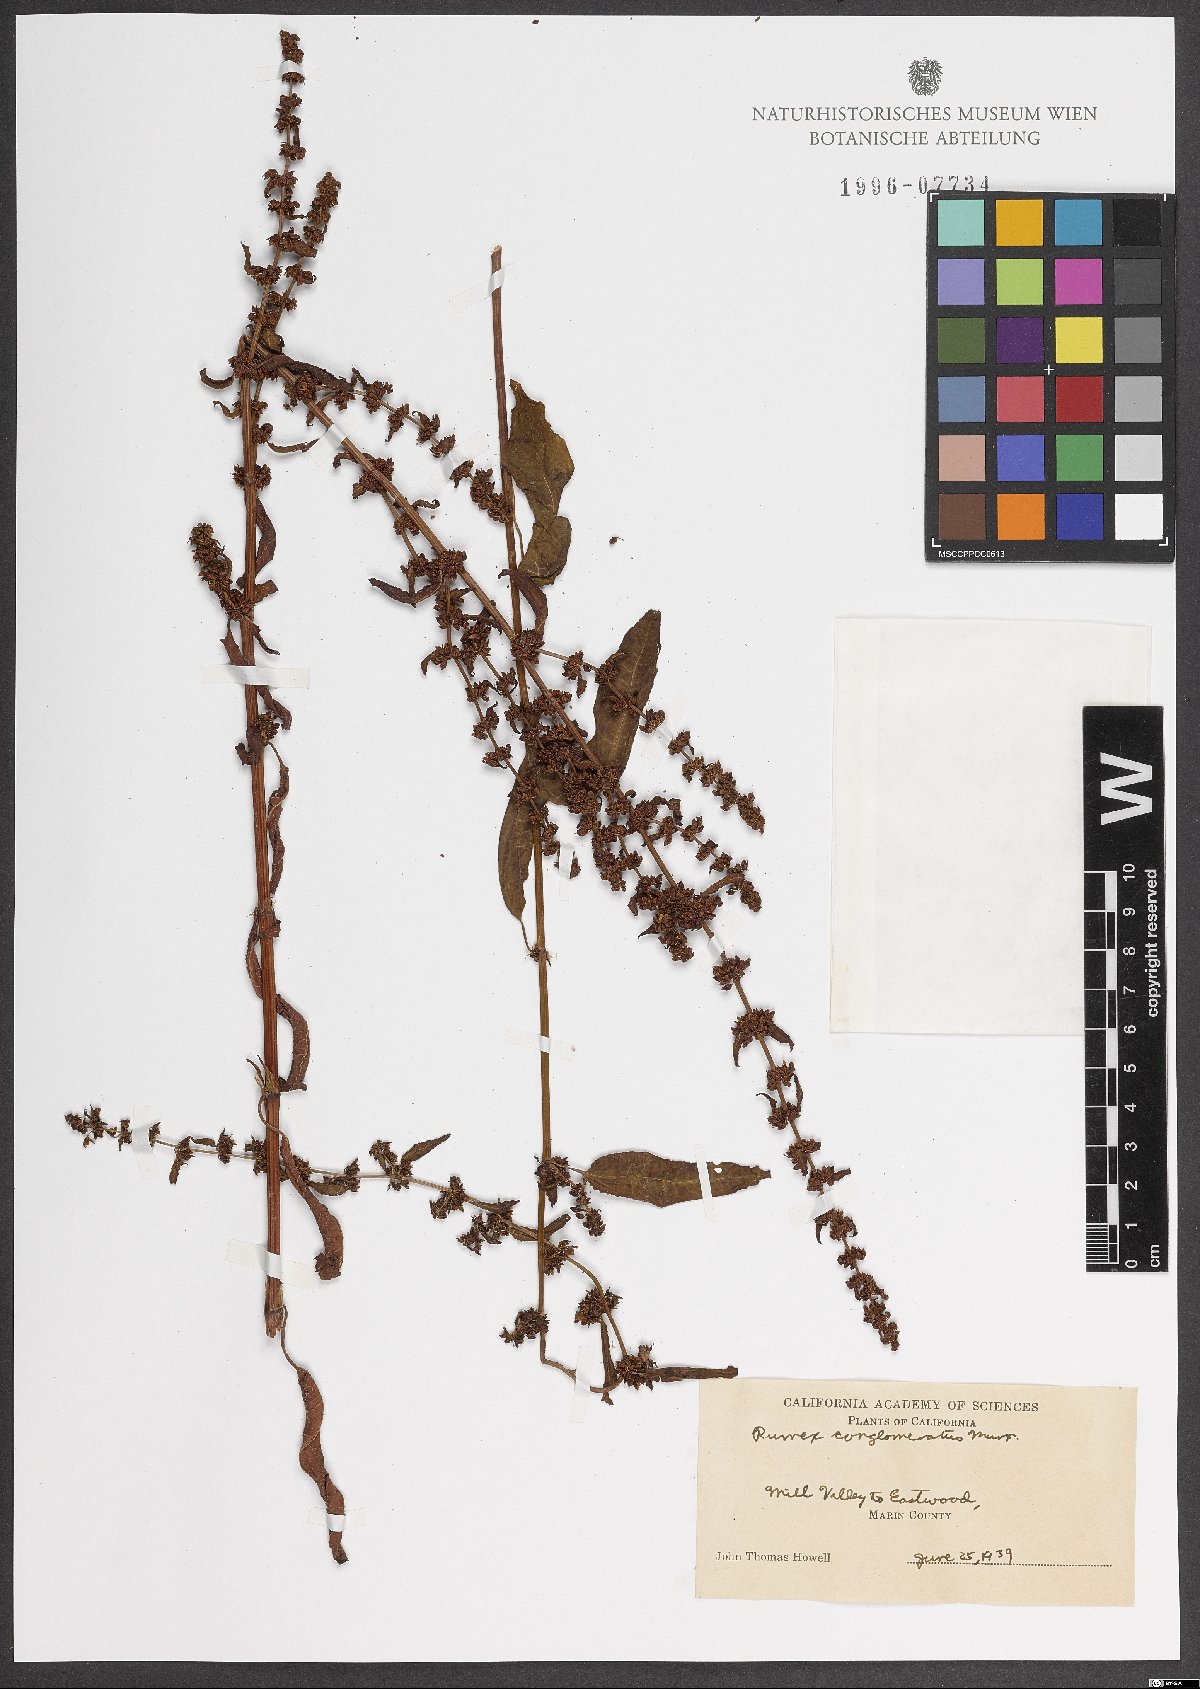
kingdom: Plantae
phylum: Tracheophyta
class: Magnoliopsida
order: Caryophyllales
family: Polygonaceae
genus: Rumex
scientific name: Rumex conglomeratus
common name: Clustered dock
